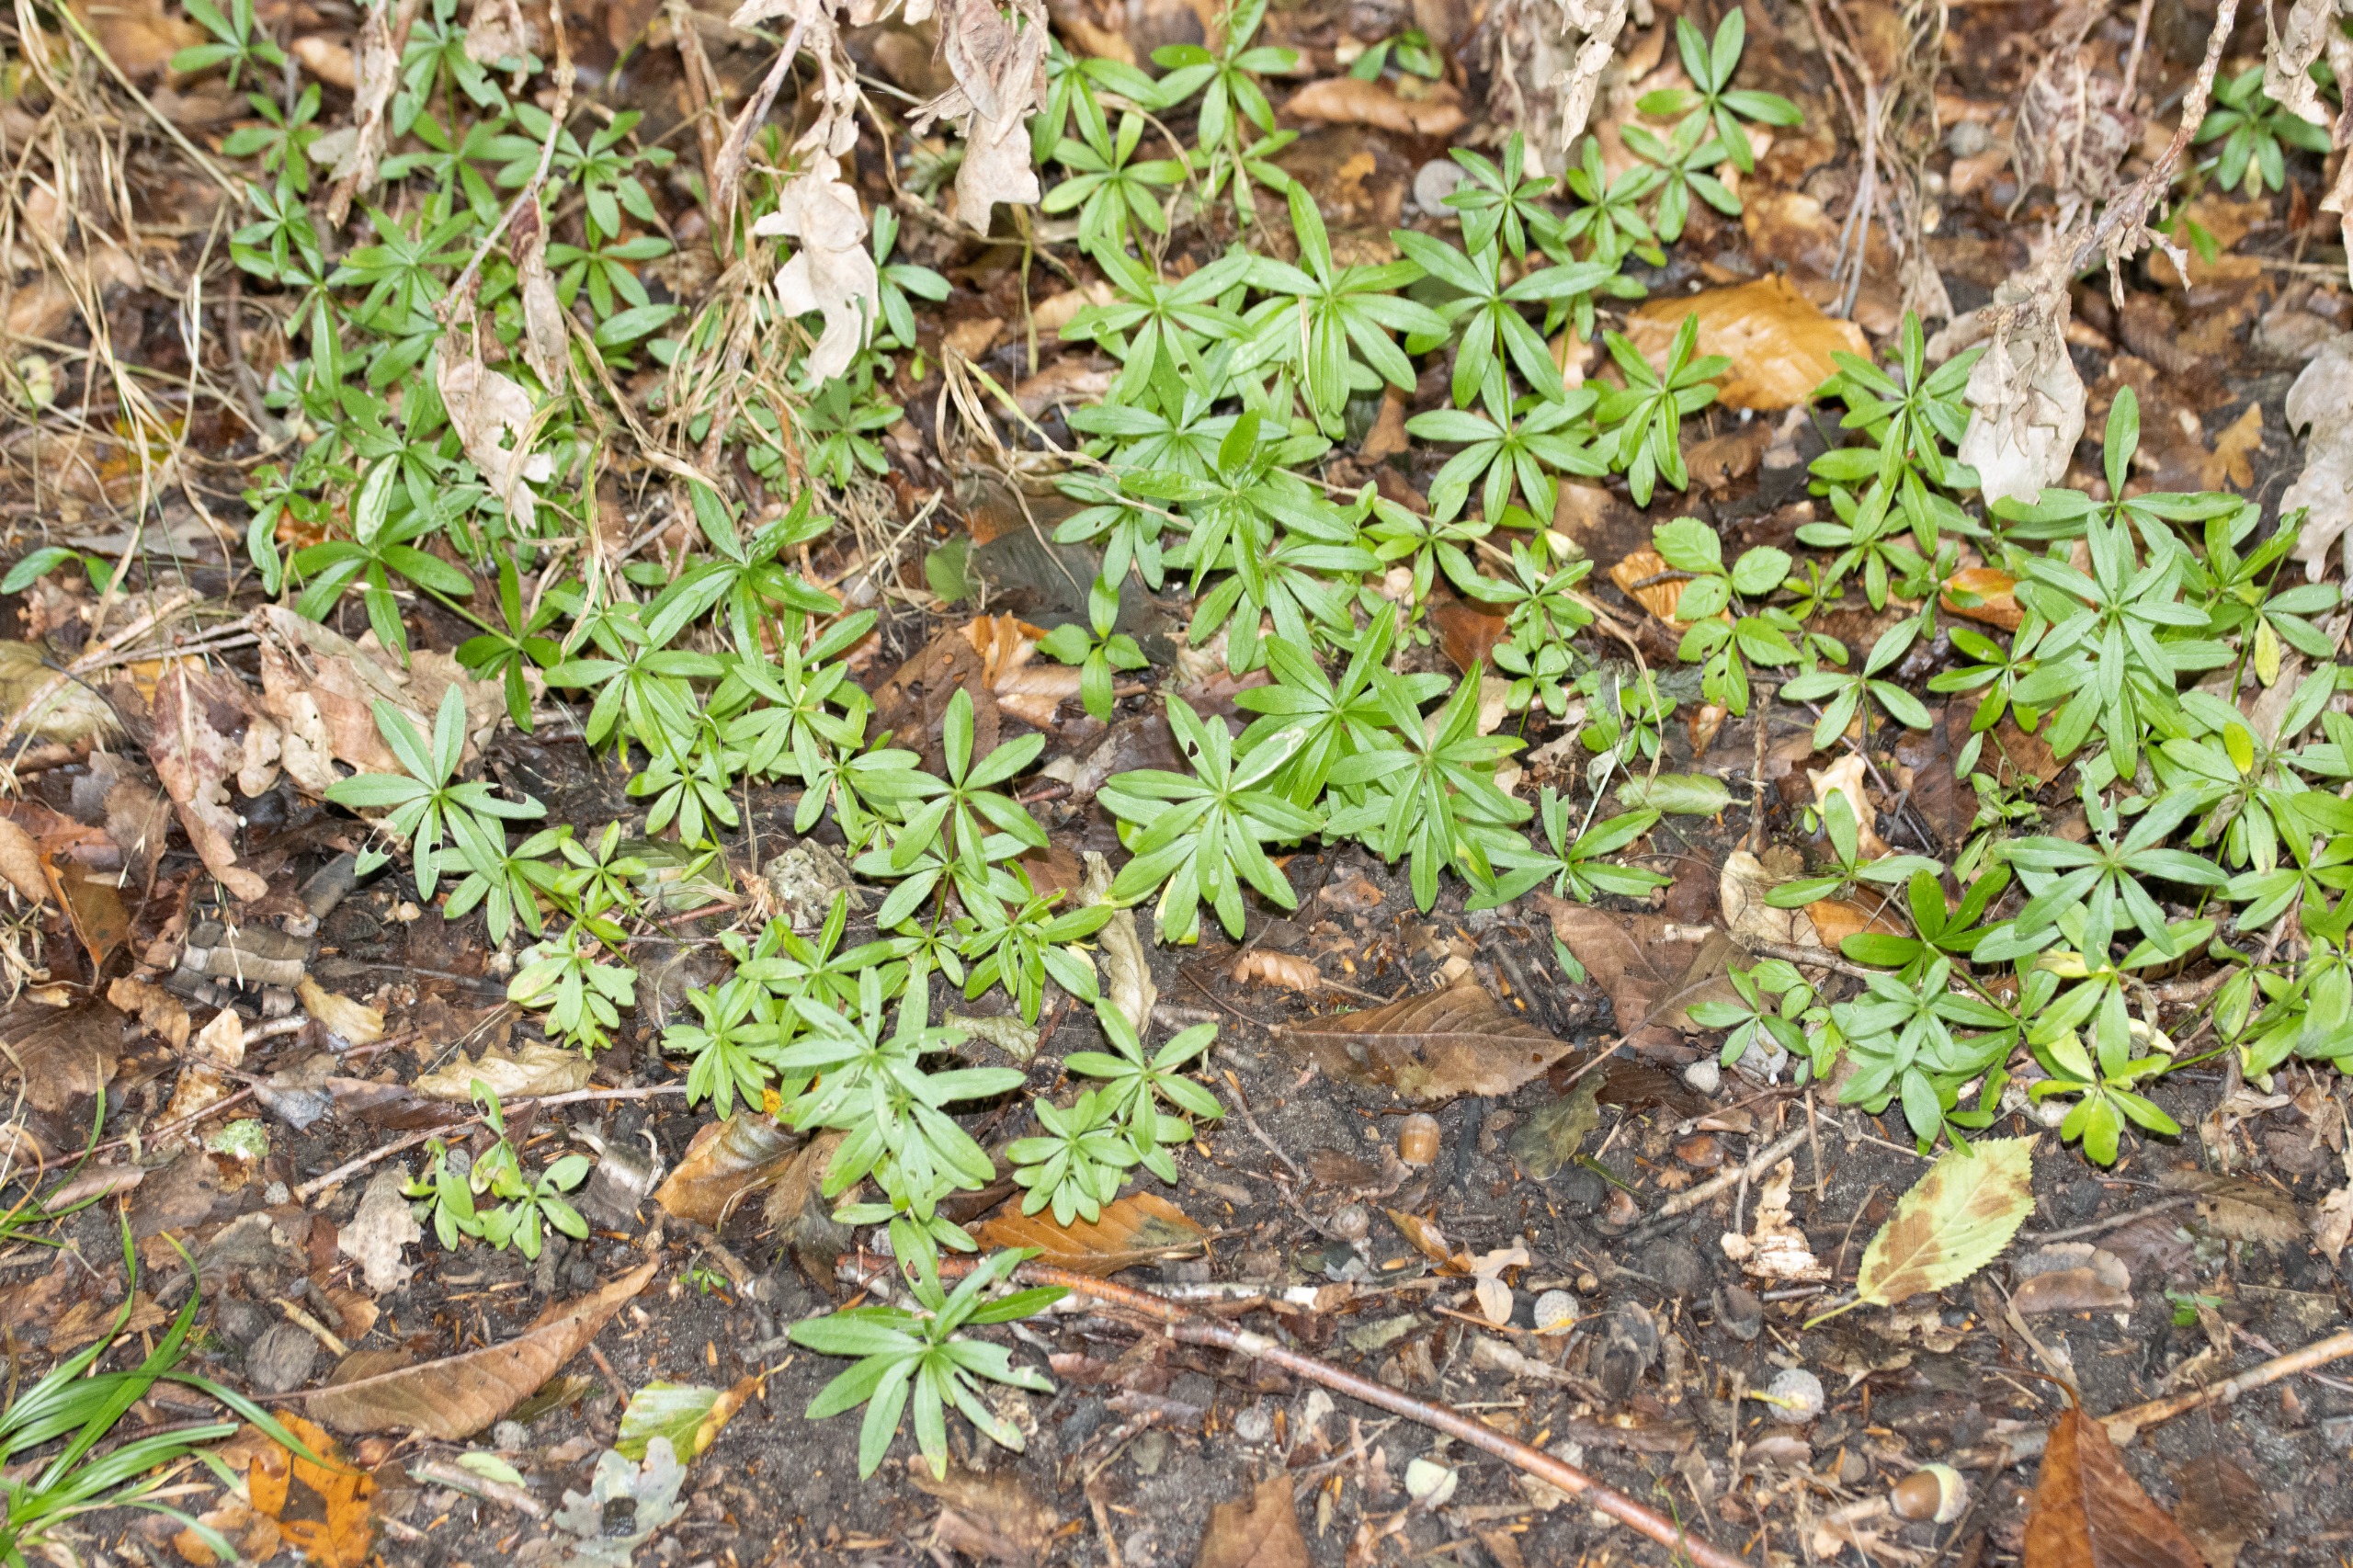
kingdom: Plantae
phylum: Tracheophyta
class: Magnoliopsida
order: Gentianales
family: Rubiaceae
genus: Galium
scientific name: Galium odoratum
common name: Skovmærke
